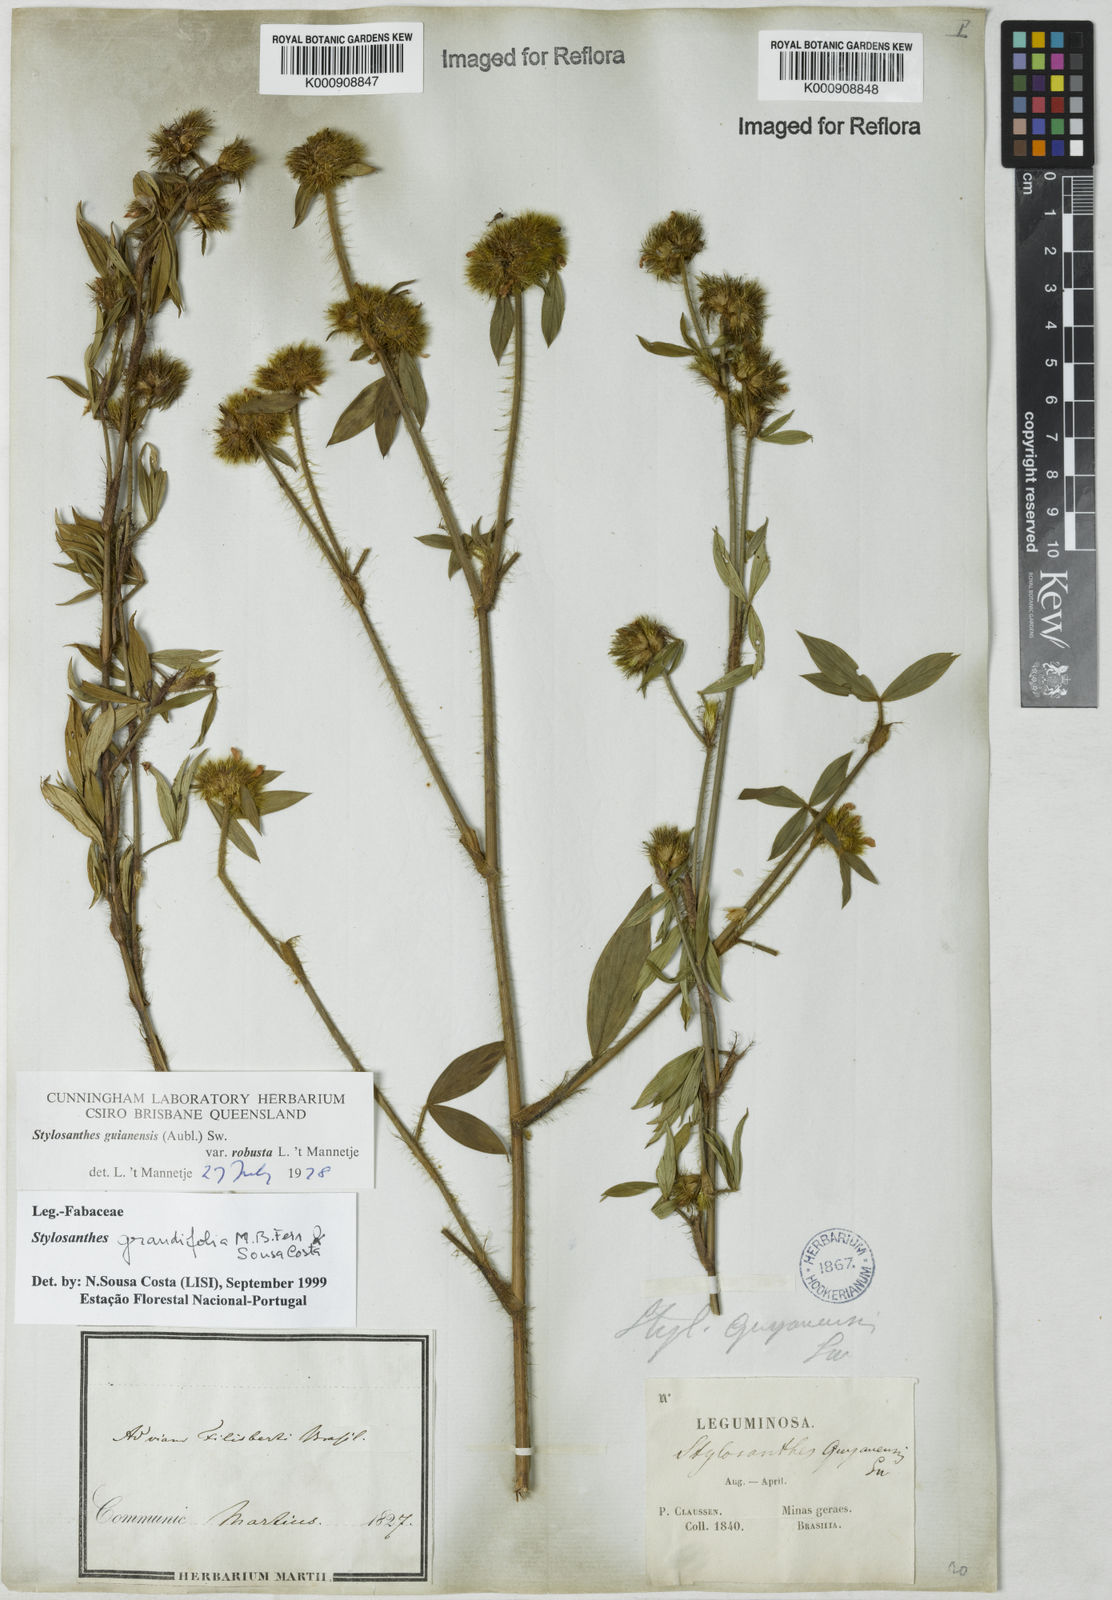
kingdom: Plantae
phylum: Tracheophyta
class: Magnoliopsida
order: Fabales
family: Fabaceae
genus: Stylosanthes
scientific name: Stylosanthes guianensis
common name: Pencil flower
